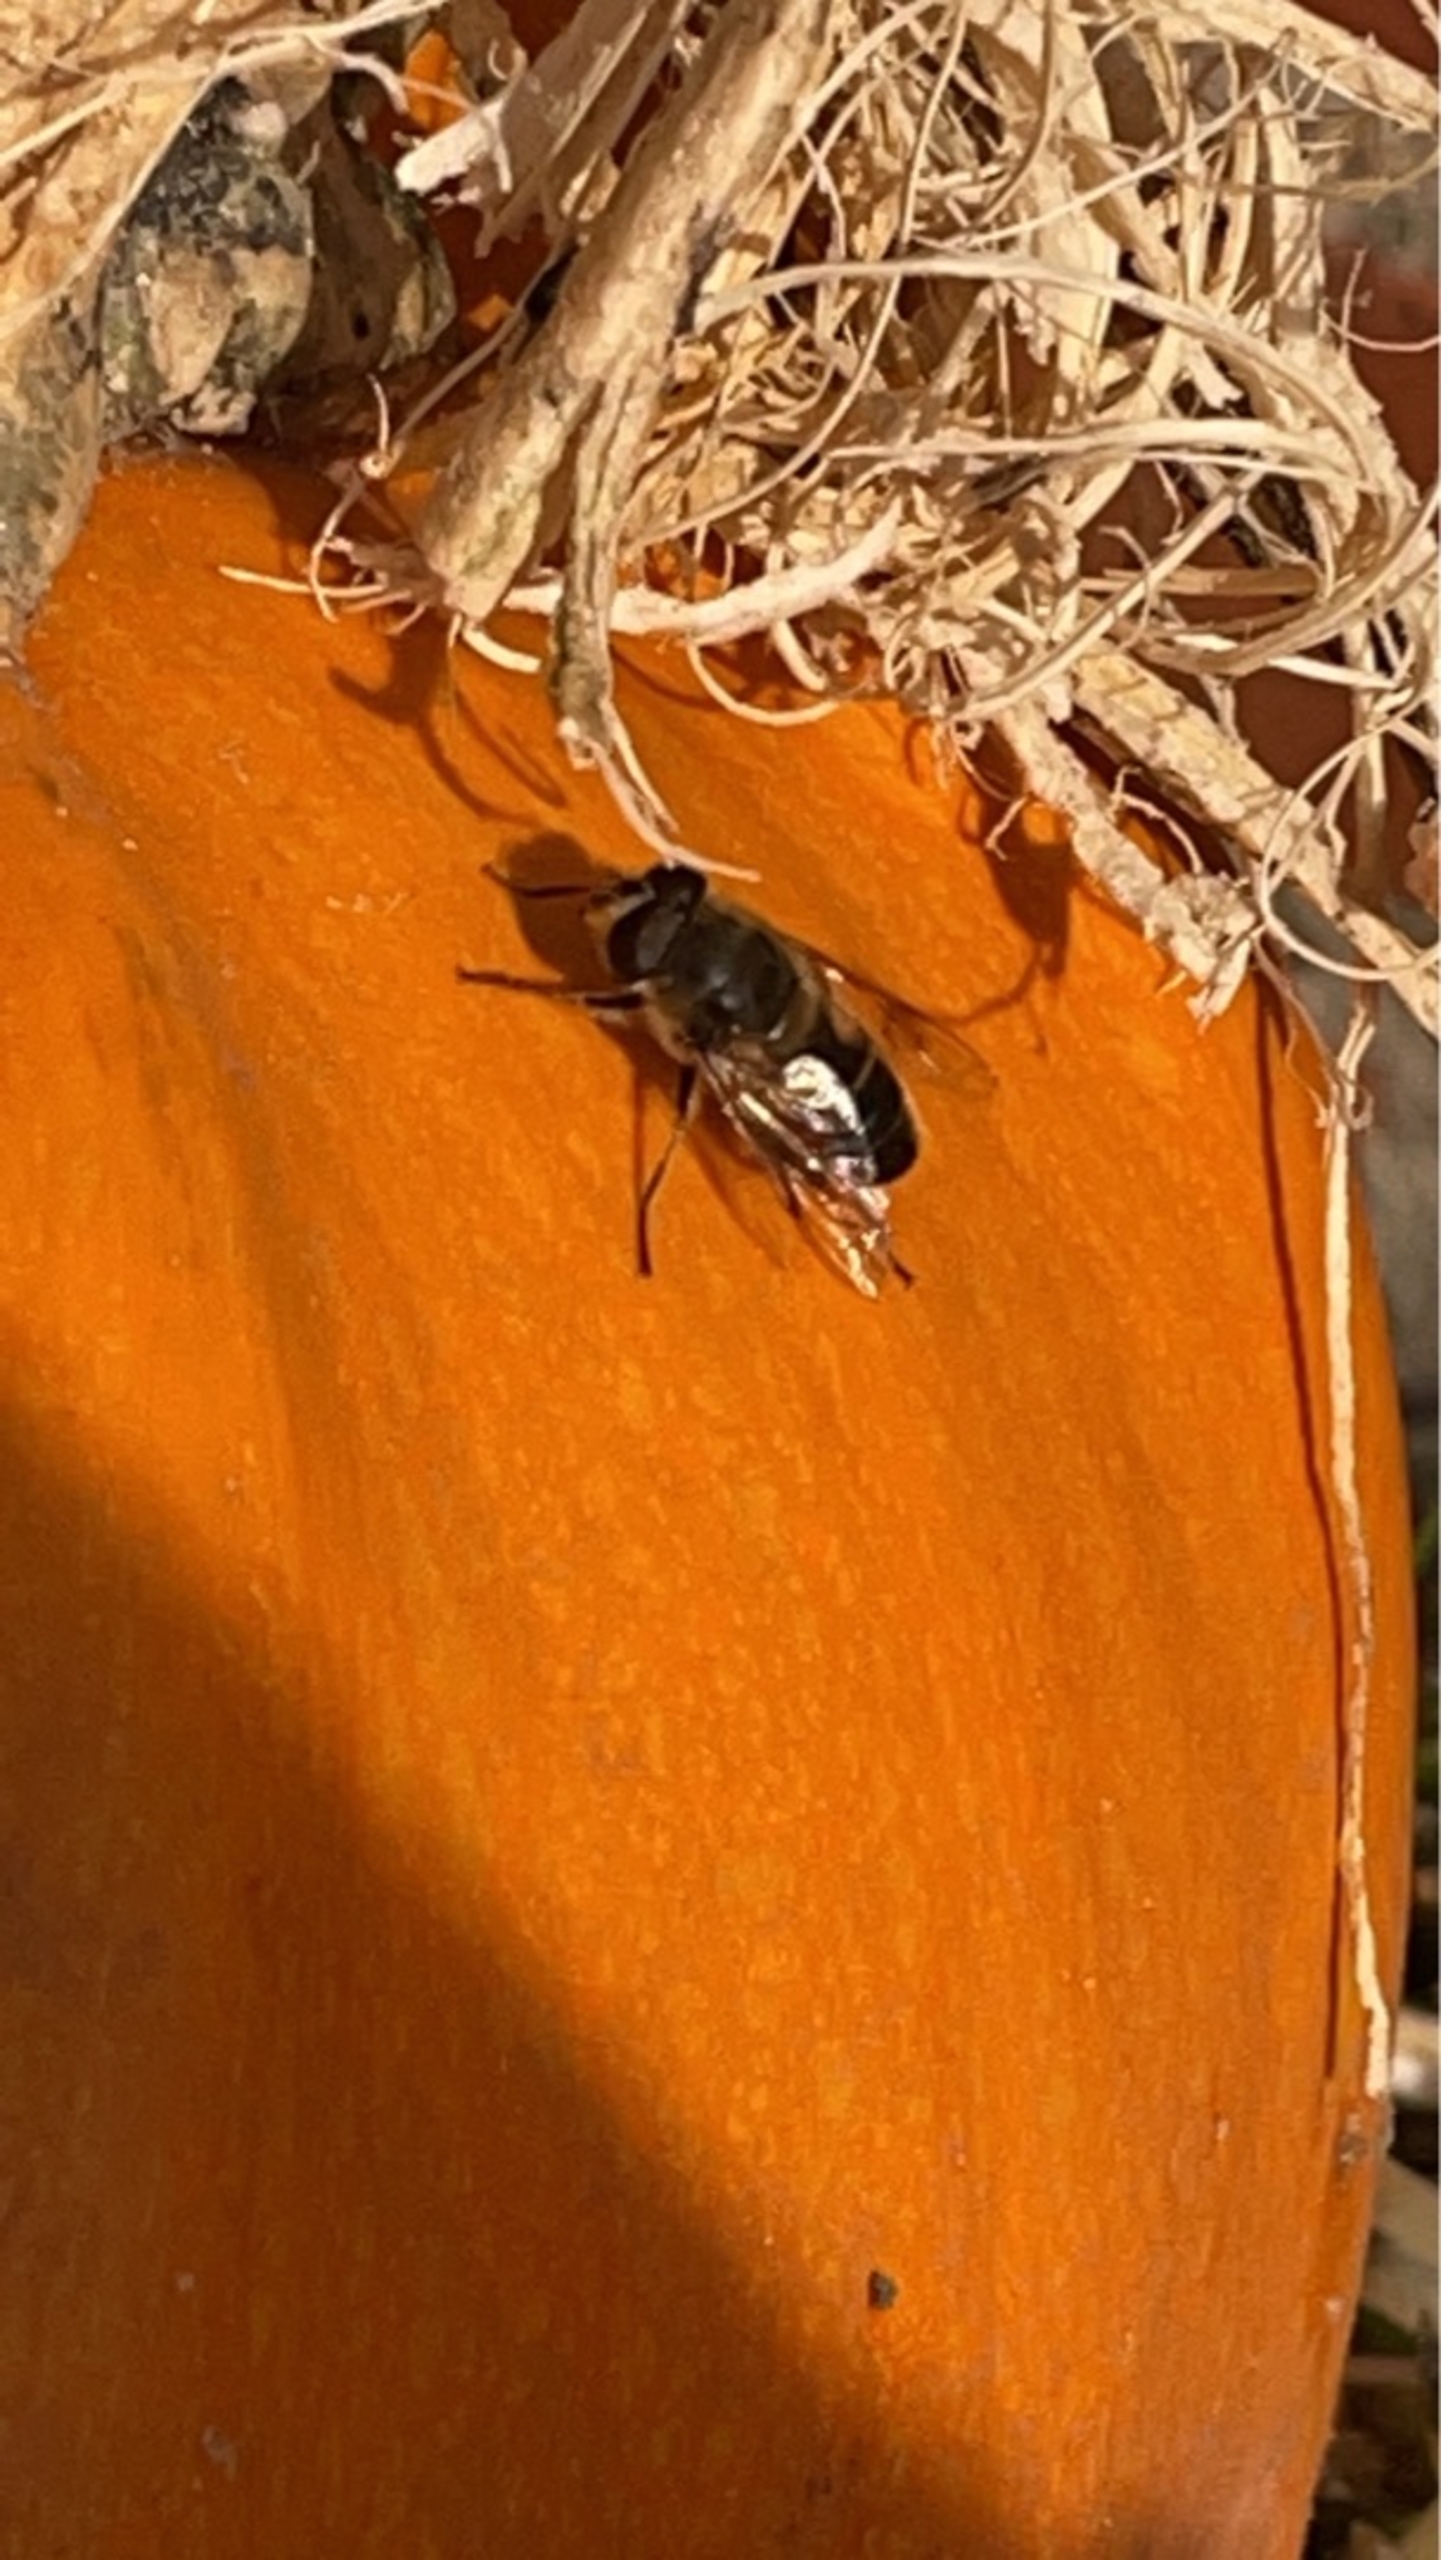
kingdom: Animalia
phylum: Arthropoda
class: Insecta
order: Diptera
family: Syrphidae
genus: Eristalis
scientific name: Eristalis tenax
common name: Droneflue
